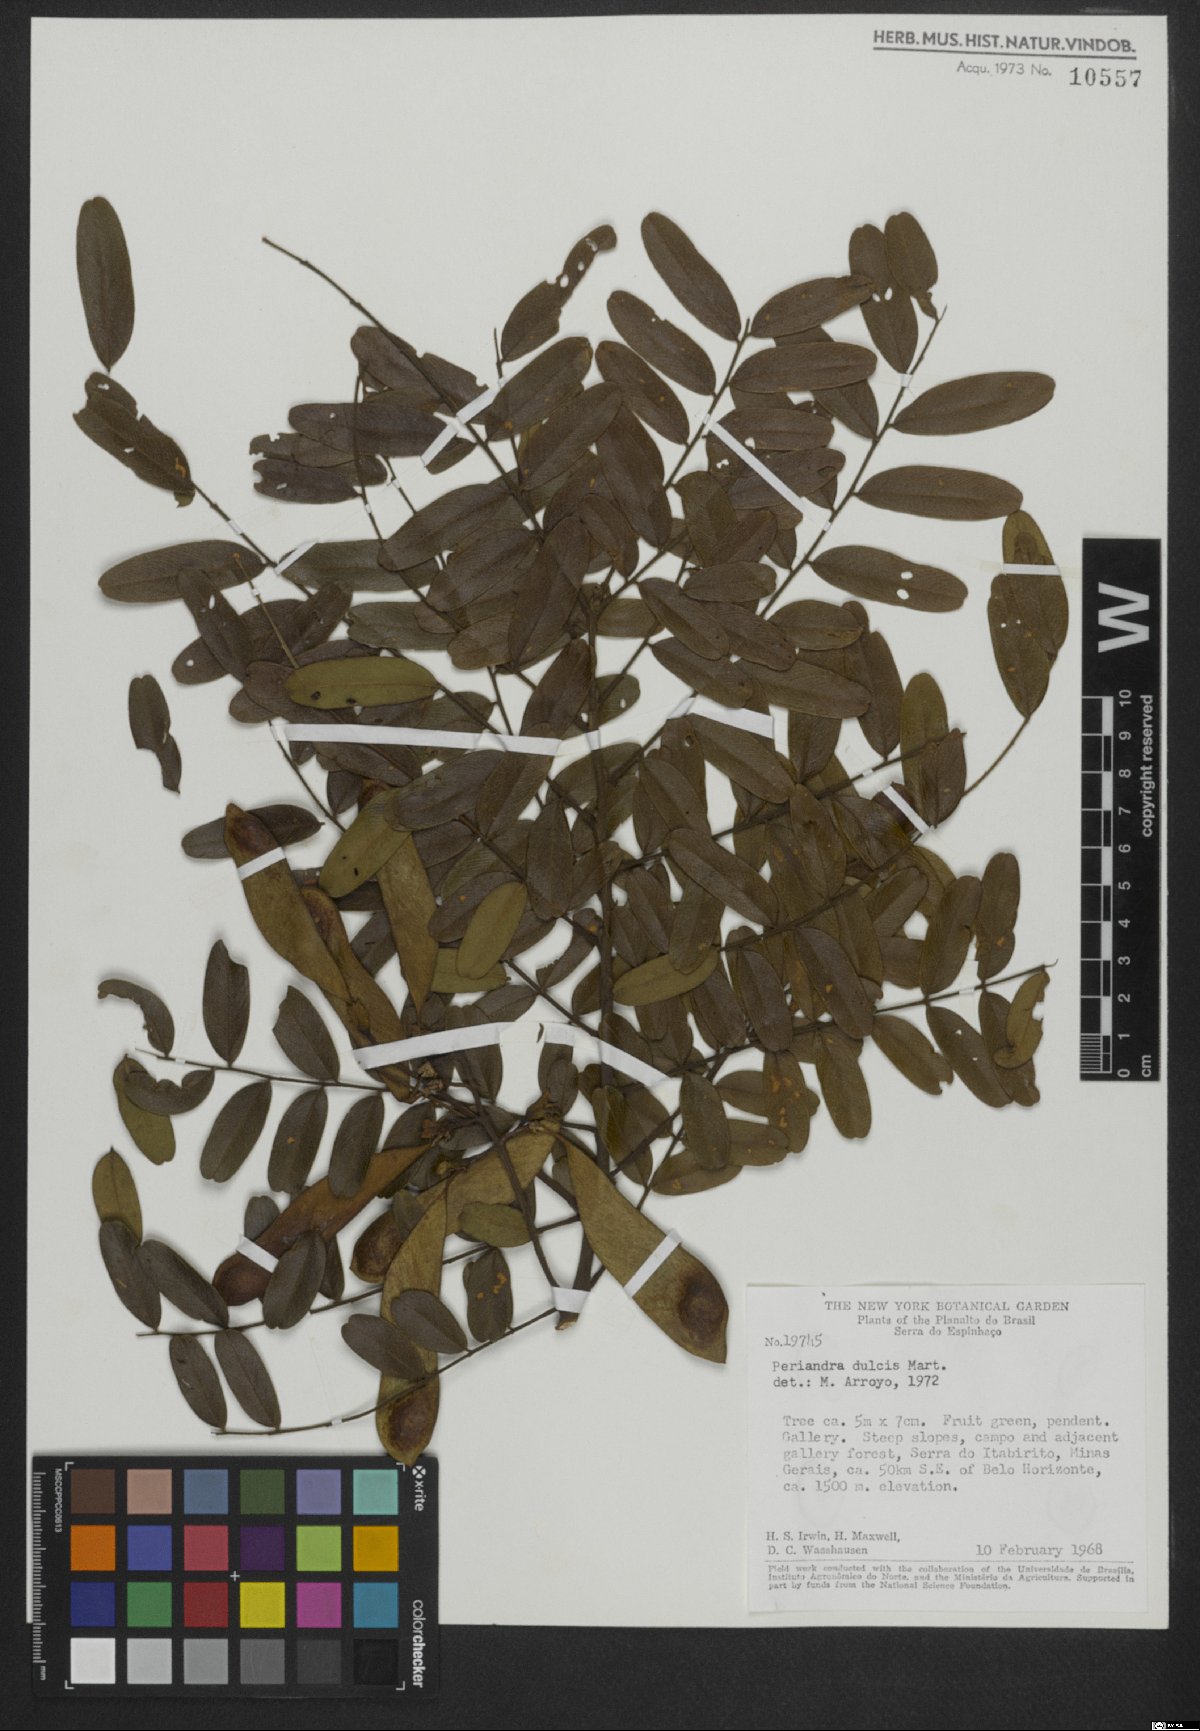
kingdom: Plantae
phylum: Tracheophyta
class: Magnoliopsida
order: Fabales
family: Fabaceae
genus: Periandra
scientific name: Periandra mediterranea
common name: Brazilian licorice
